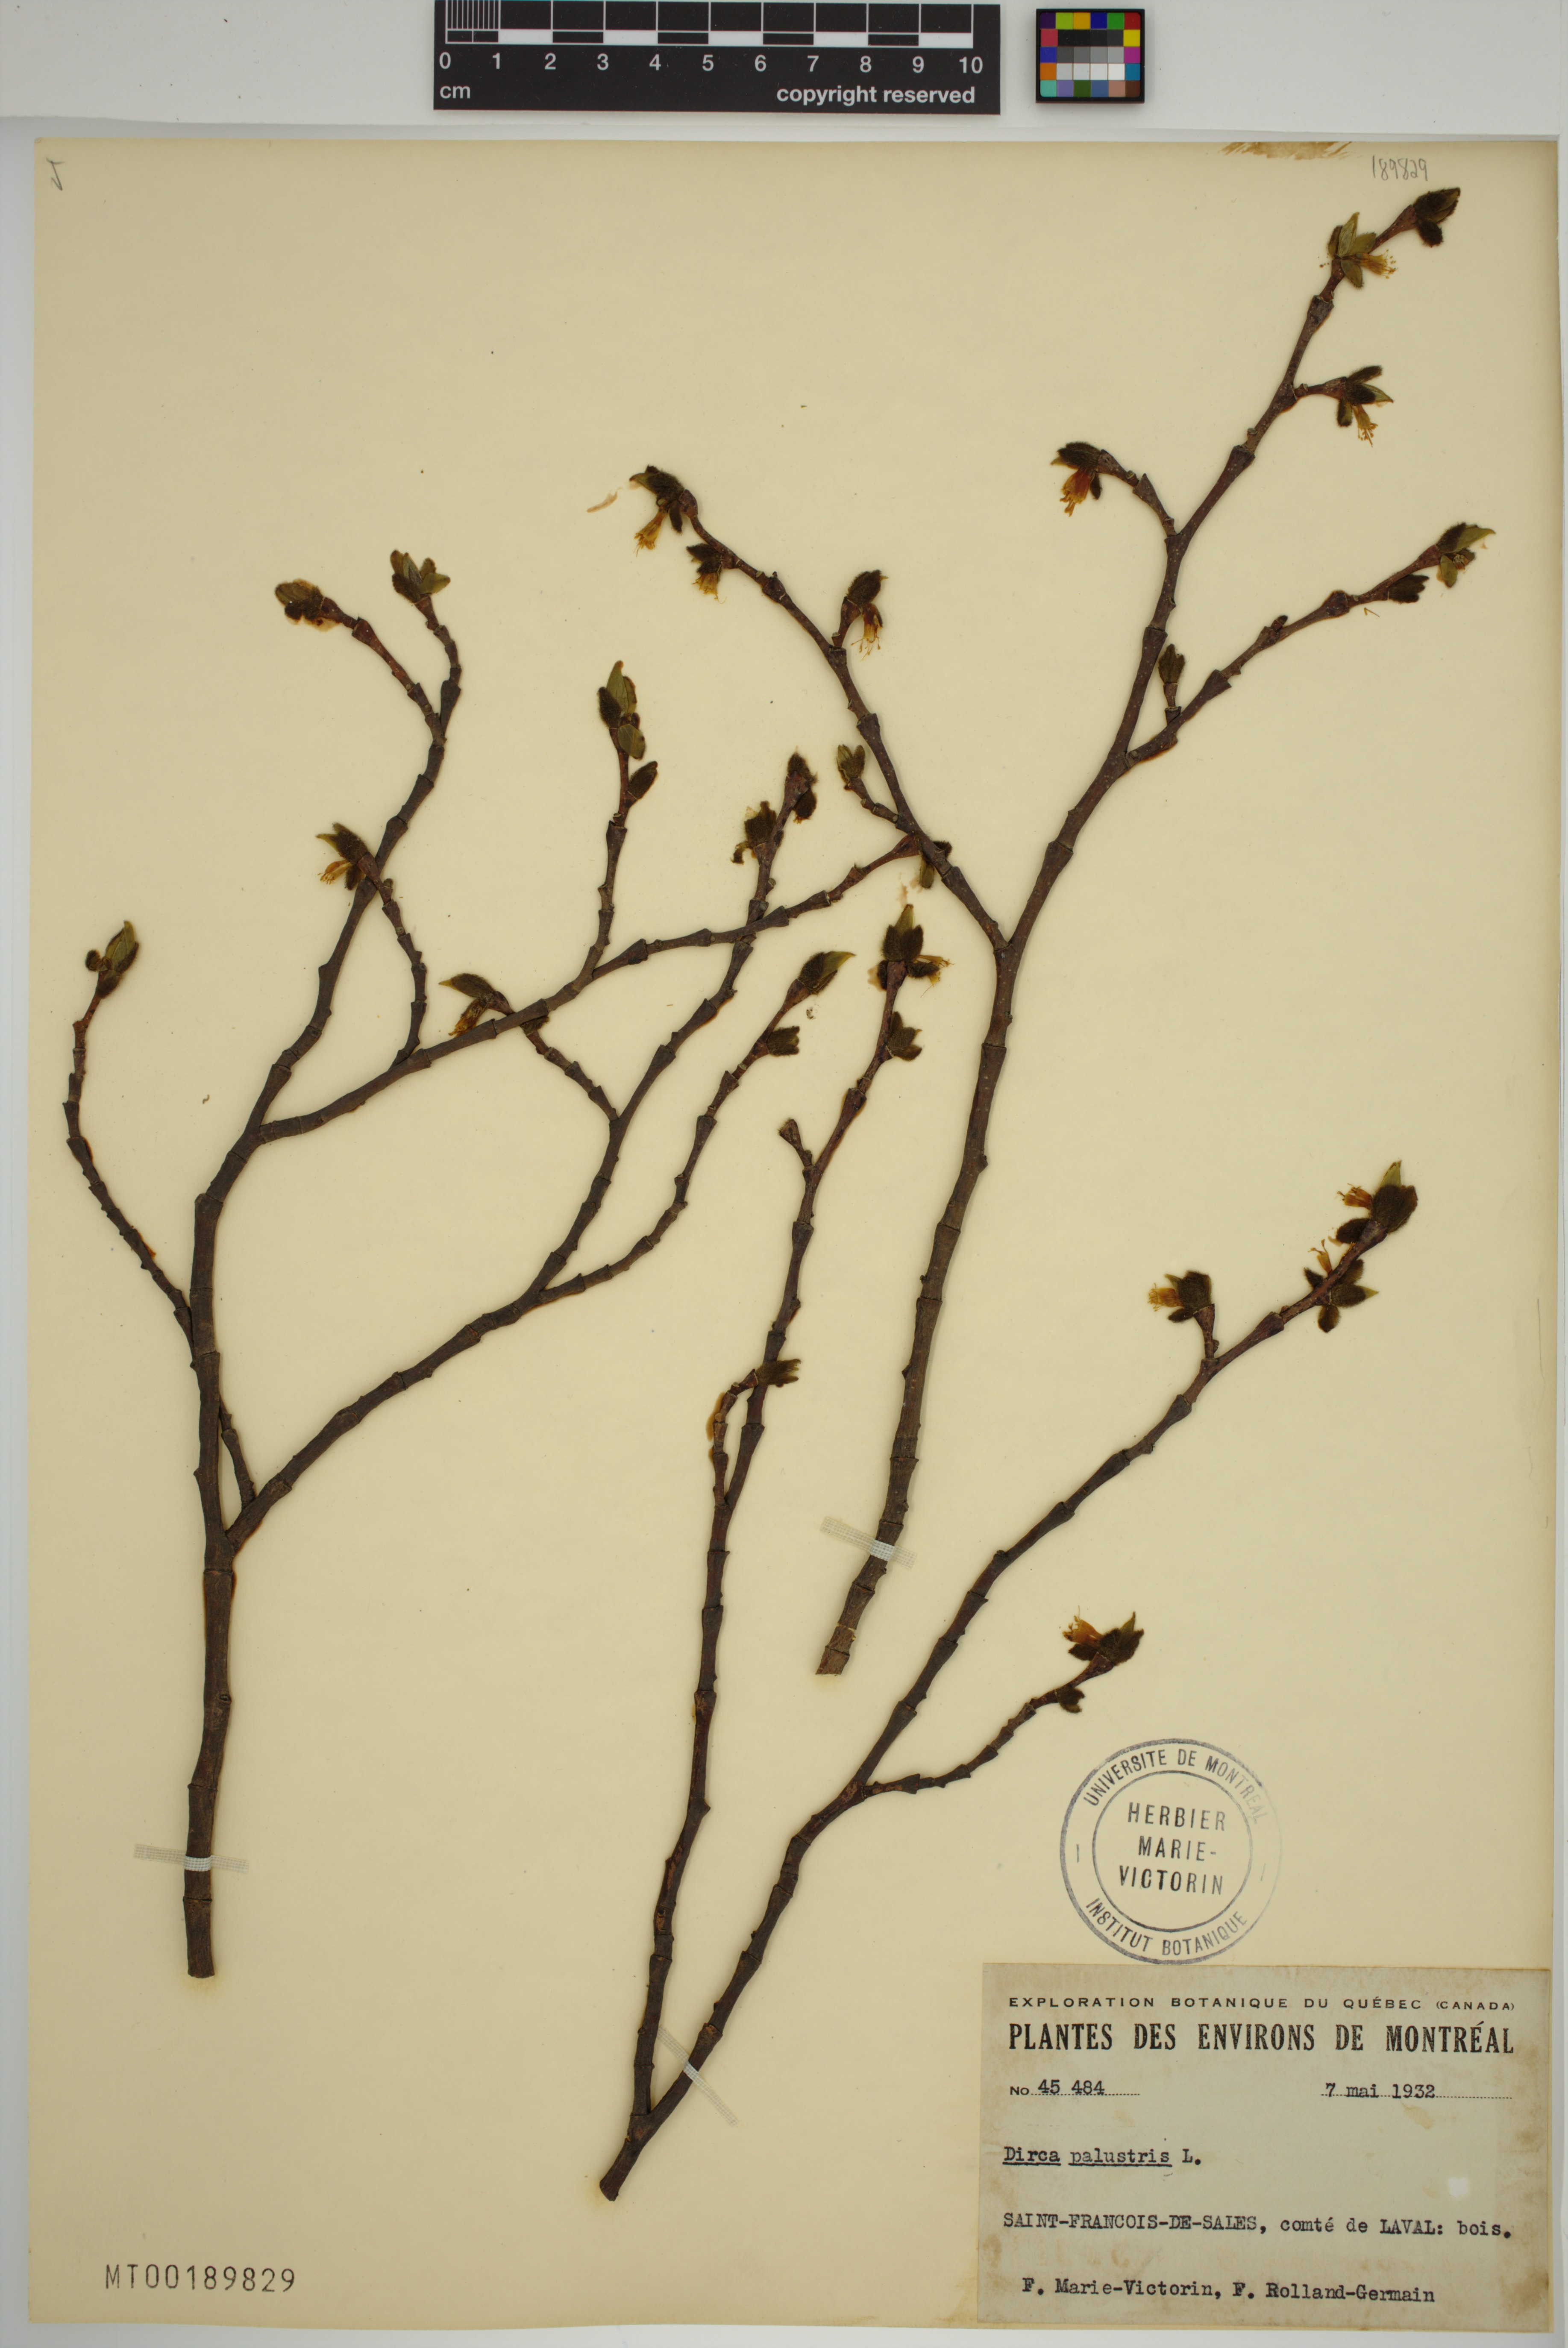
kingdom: Plantae
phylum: Tracheophyta
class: Magnoliopsida
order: Malvales
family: Thymelaeaceae
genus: Dirca
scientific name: Dirca palustris
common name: Leatherwood
